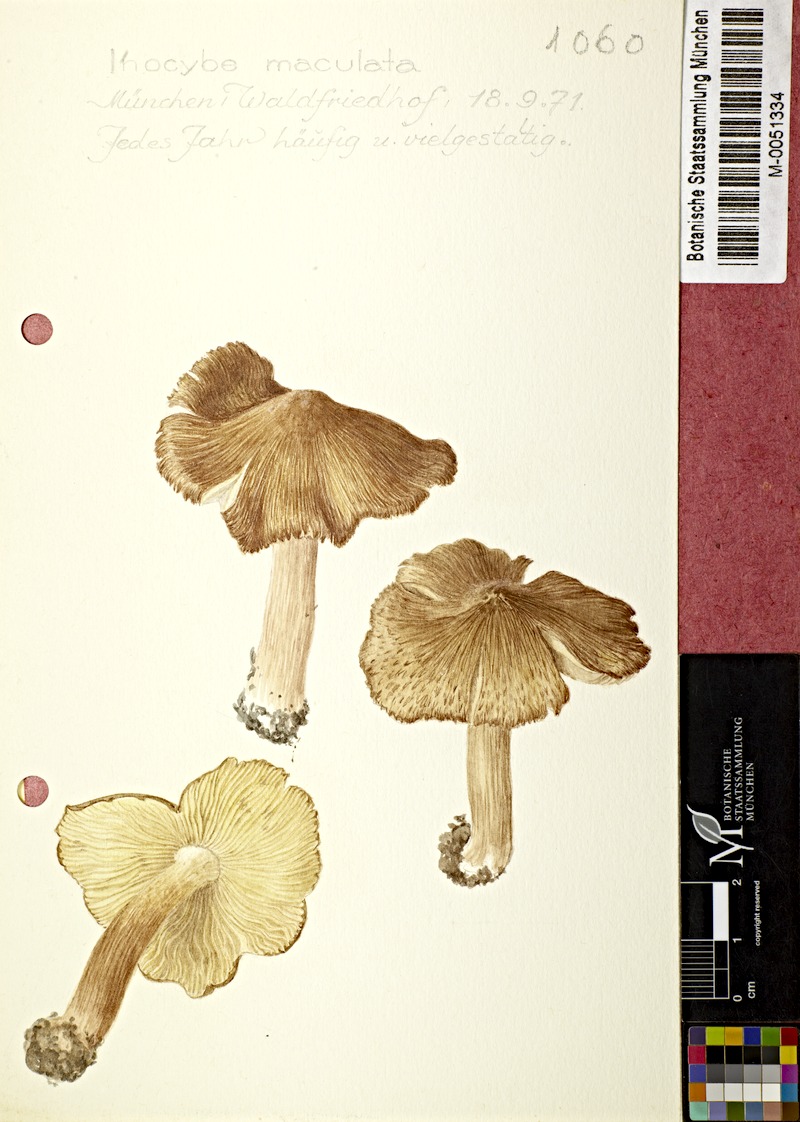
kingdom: Fungi
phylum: Basidiomycota
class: Agaricomycetes
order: Agaricales
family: Inocybaceae
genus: Inosperma
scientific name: Inosperma maculatum
